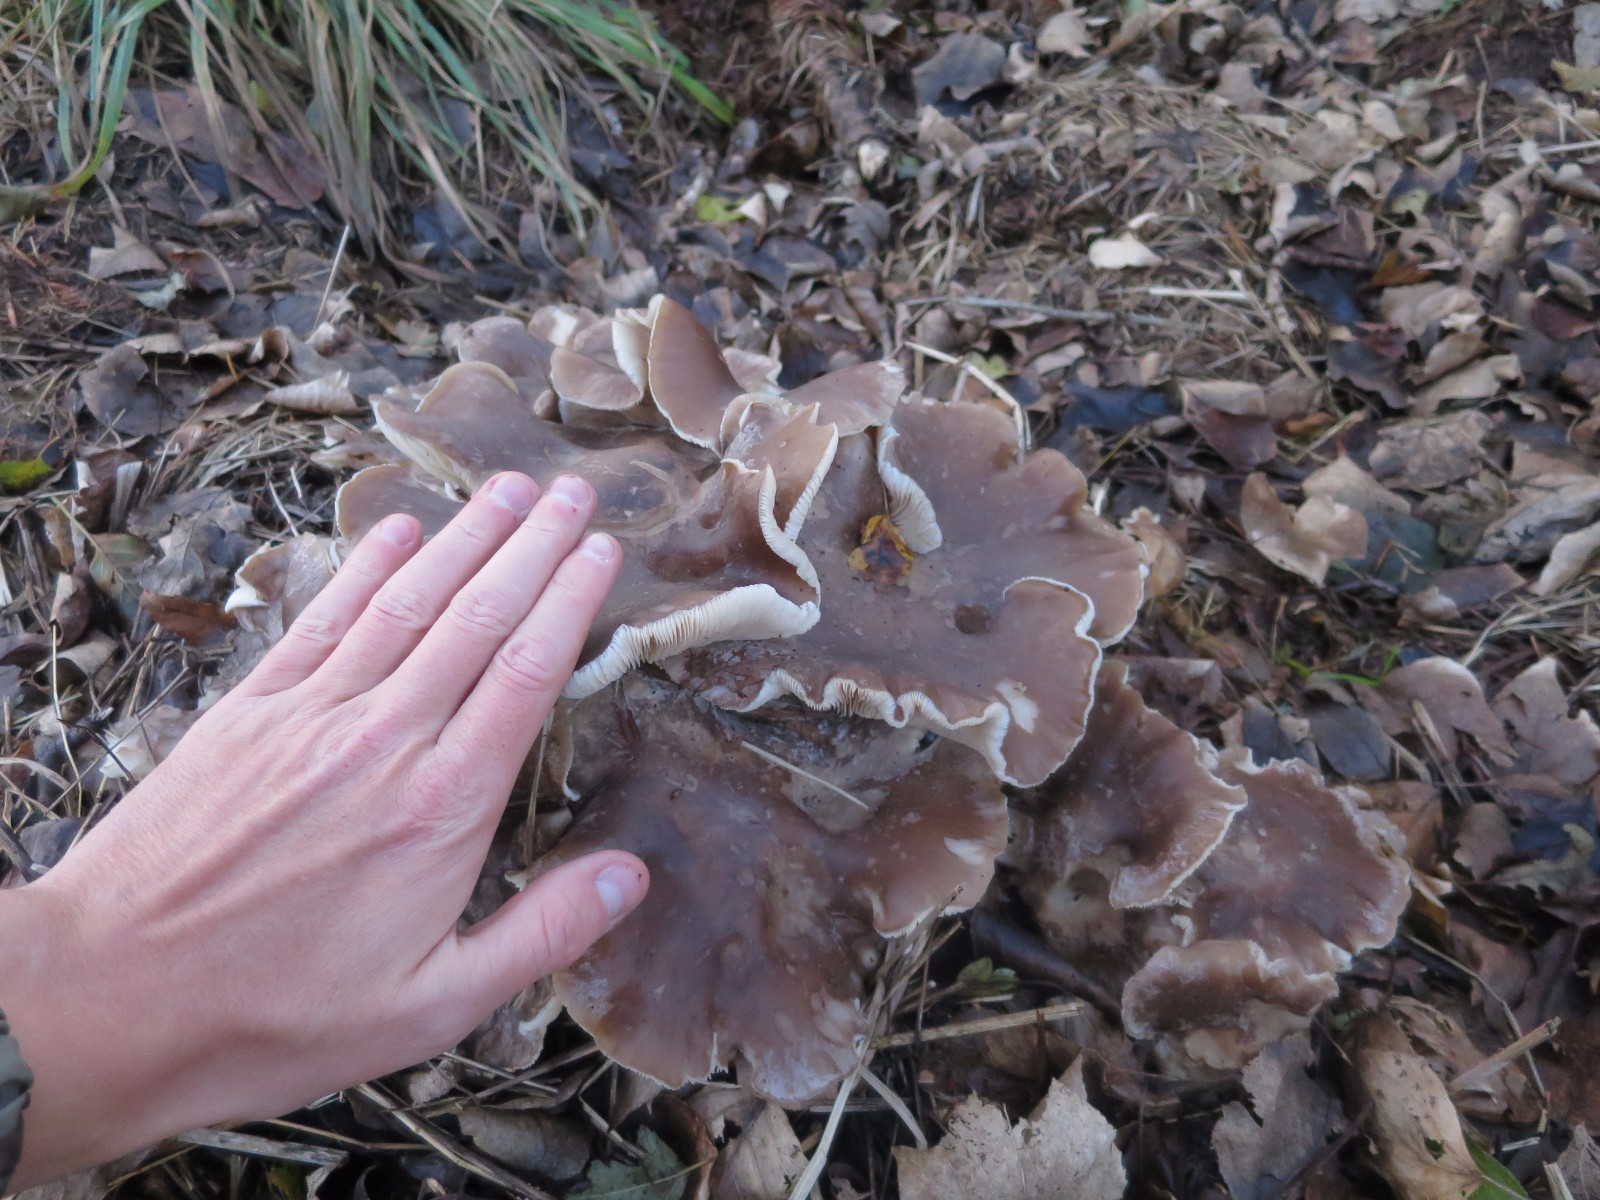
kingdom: Fungi
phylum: Basidiomycota
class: Agaricomycetes
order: Agaricales
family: Tricholomataceae
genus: Clitocybe
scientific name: Clitocybe nebularis
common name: tåge-tragthat
